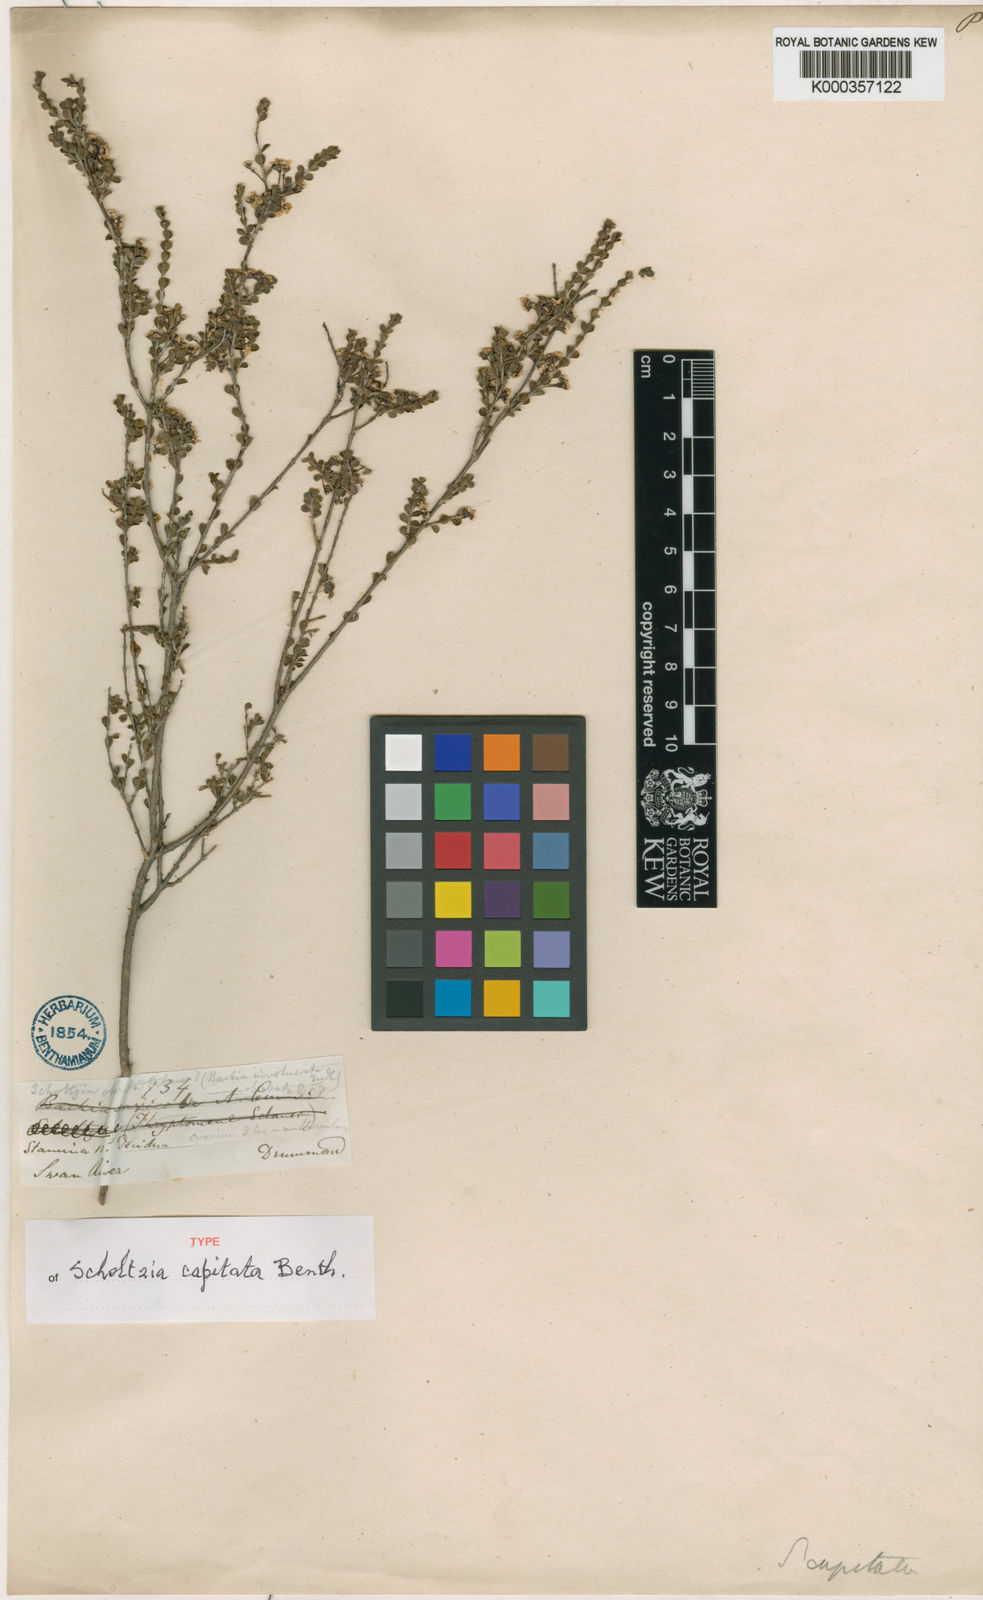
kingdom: Plantae
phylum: Tracheophyta
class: Magnoliopsida
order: Myrtales
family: Myrtaceae
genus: Scholtzia
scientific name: Scholtzia capitata
